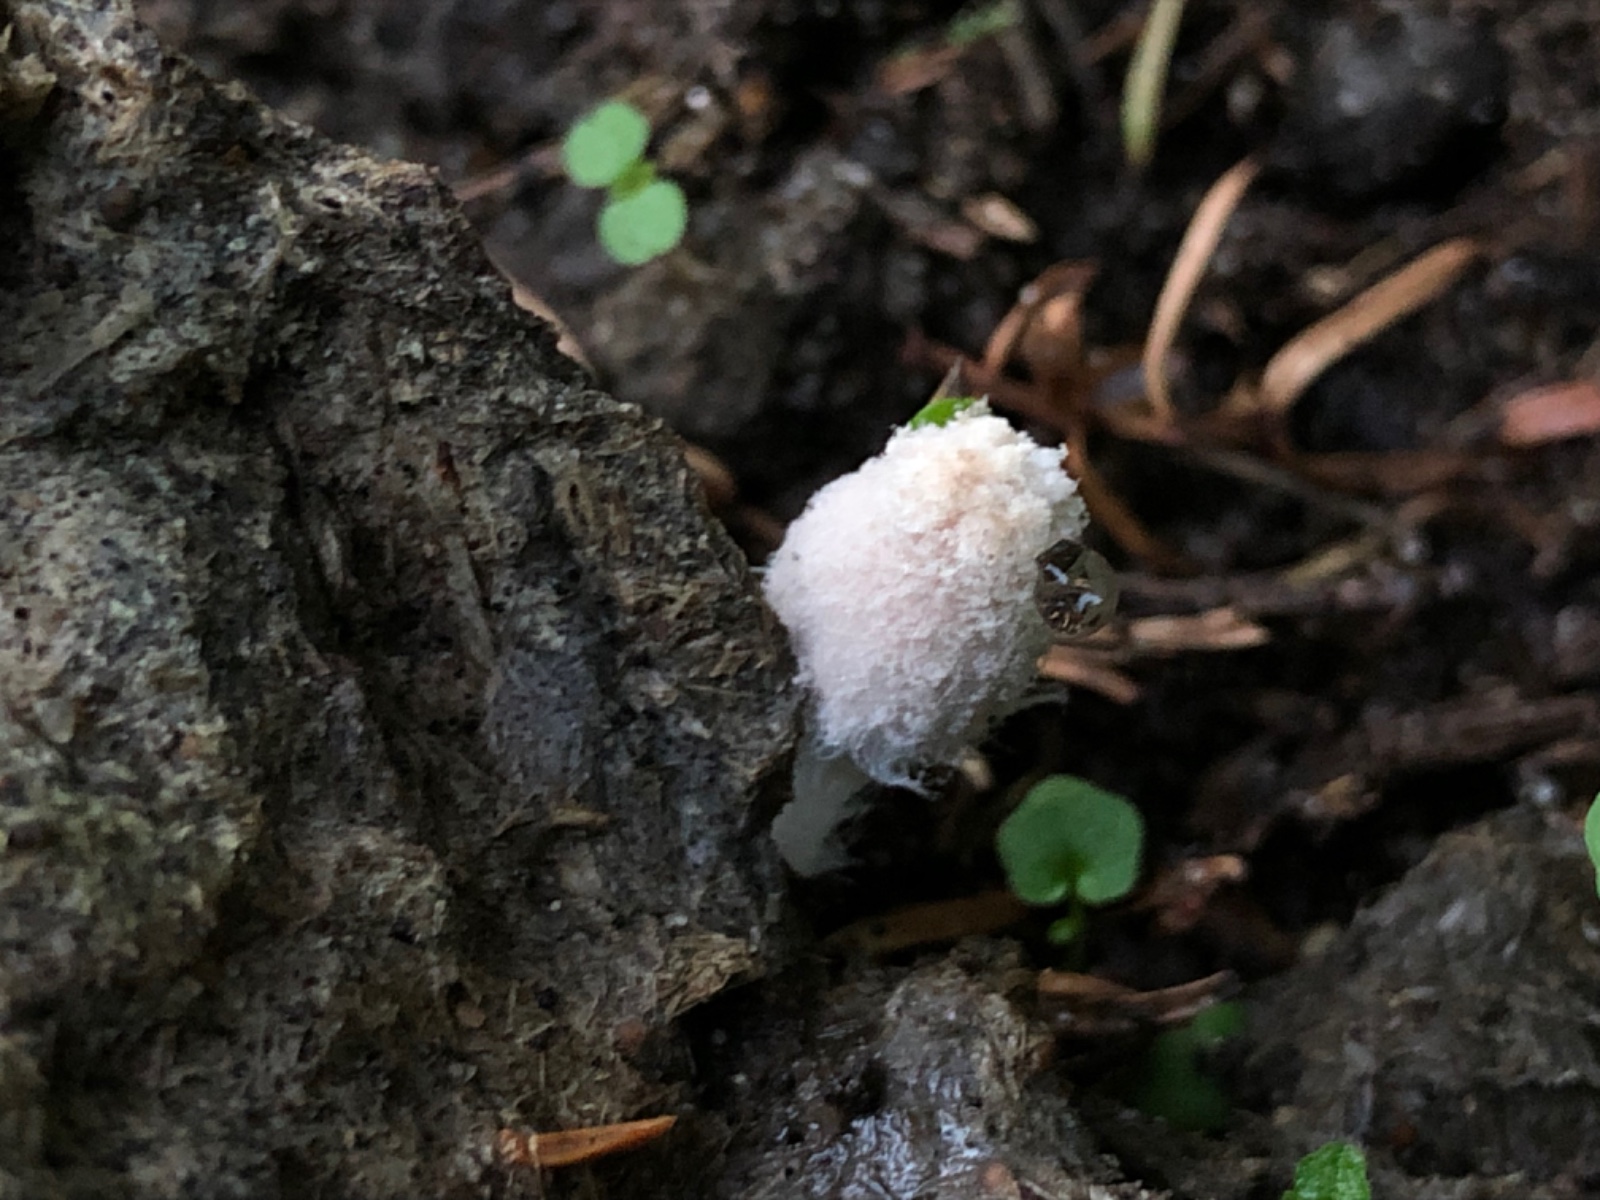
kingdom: Fungi
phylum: Basidiomycota
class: Agaricomycetes
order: Agaricales
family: Psathyrellaceae
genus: Coprinopsis
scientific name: Coprinopsis
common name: blækhat
